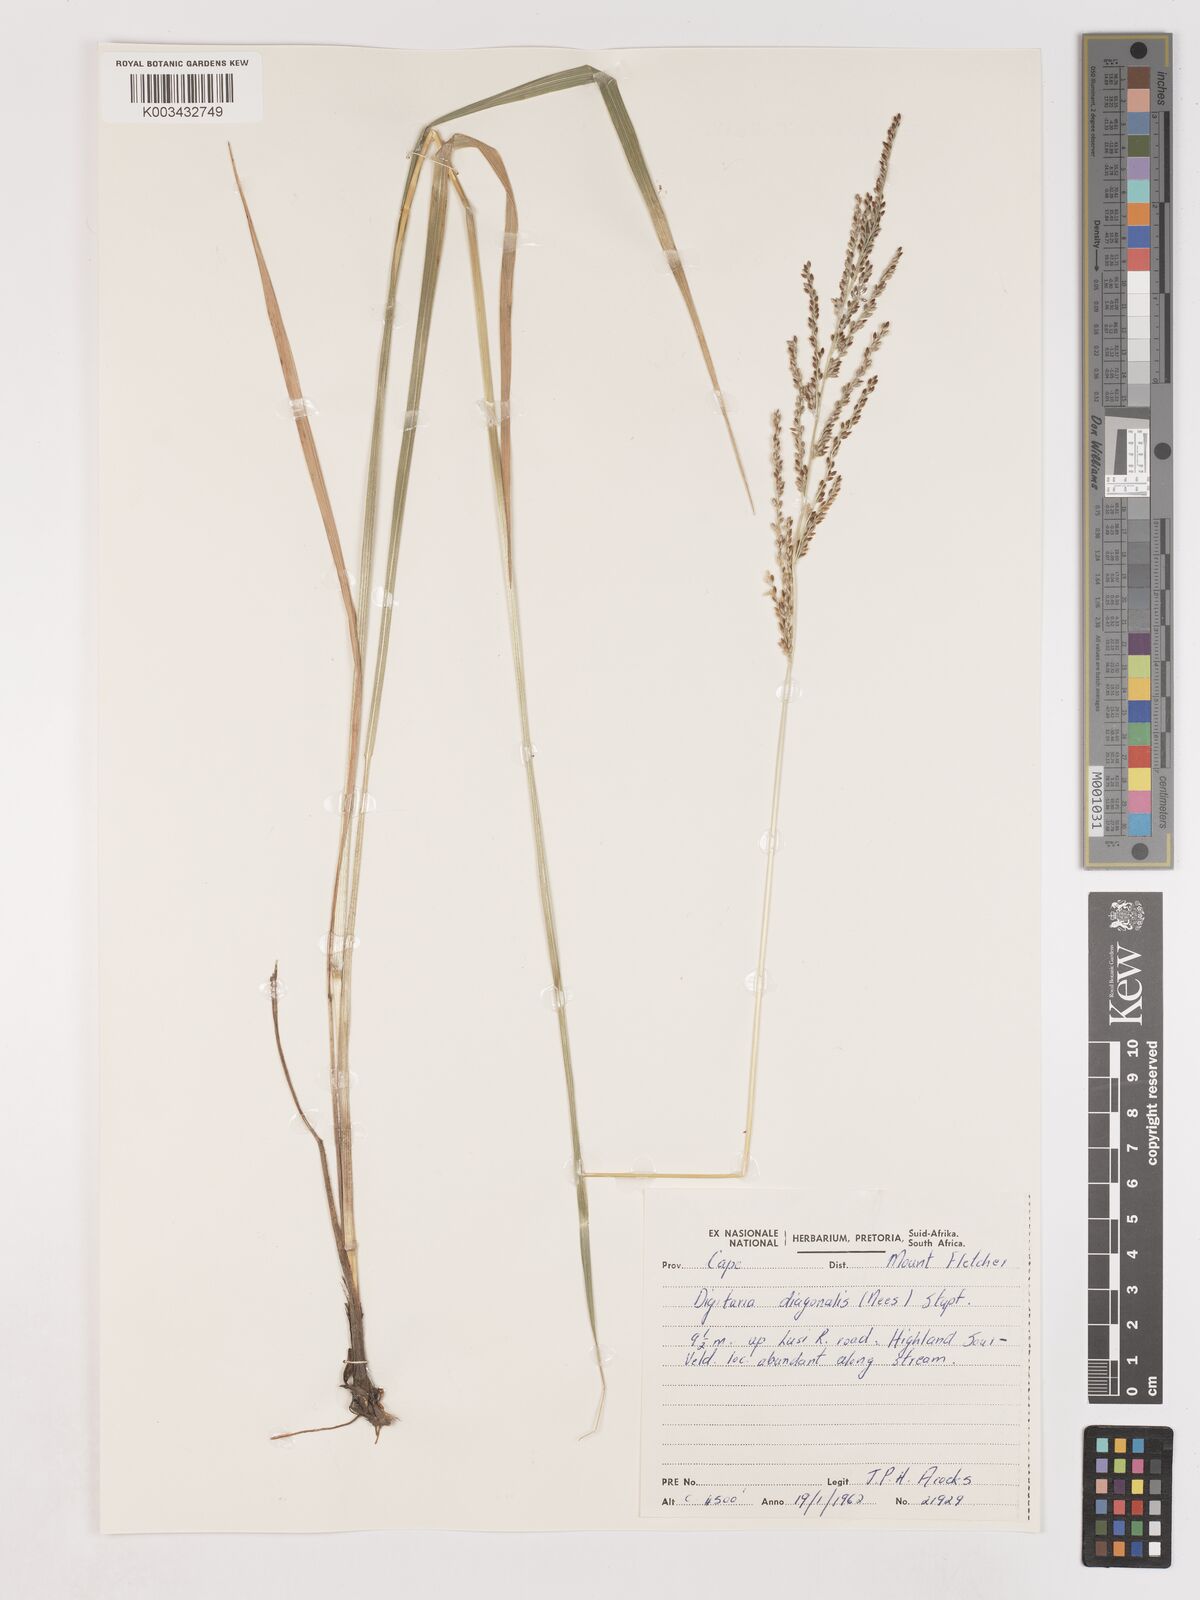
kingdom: Plantae
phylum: Tracheophyta
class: Liliopsida
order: Poales
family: Poaceae
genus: Digitaria
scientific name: Digitaria diagonalis
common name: Brown-seed finger grass
